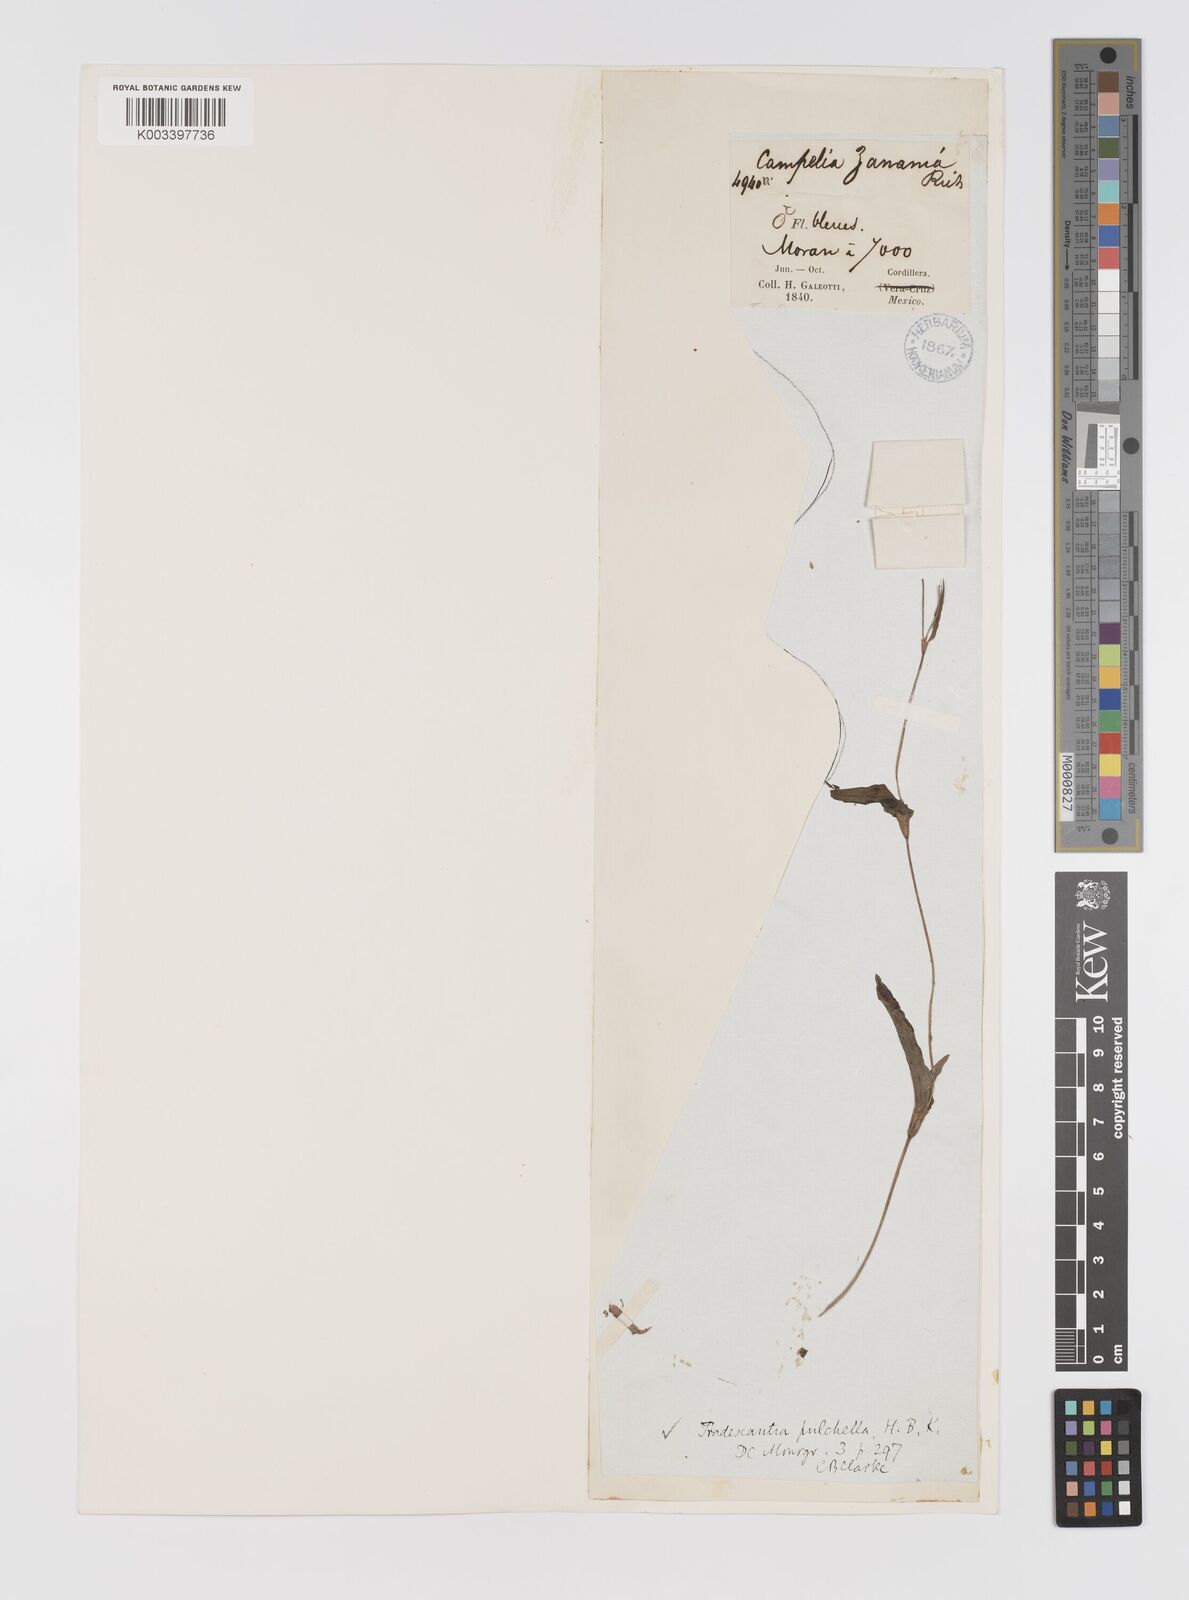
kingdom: Plantae
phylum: Tracheophyta
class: Liliopsida
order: Commelinales
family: Commelinaceae
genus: Gibasis
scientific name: Gibasis pulchella
